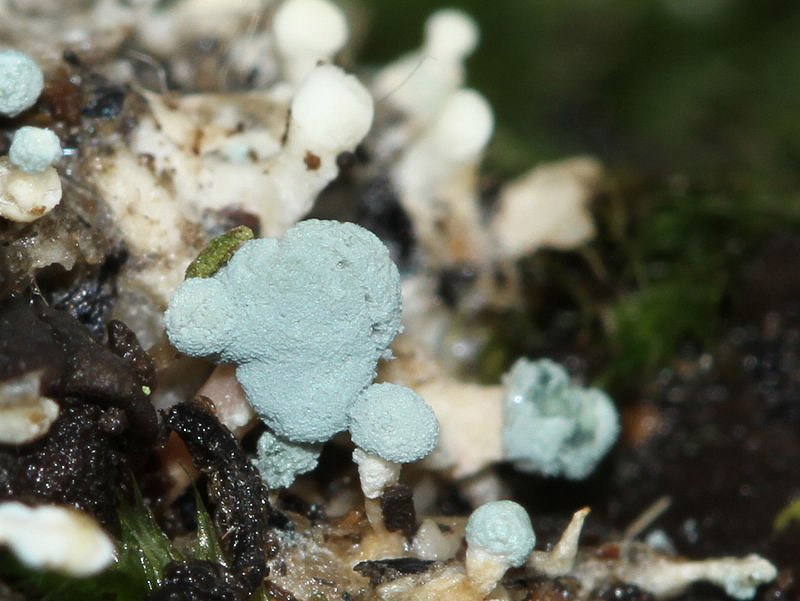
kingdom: Fungi
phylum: Ascomycota
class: Eurotiomycetes
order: Eurotiales
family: Aspergillaceae
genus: Penicillium
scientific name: Penicillium vulpinum
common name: kølle-penselskimmel
